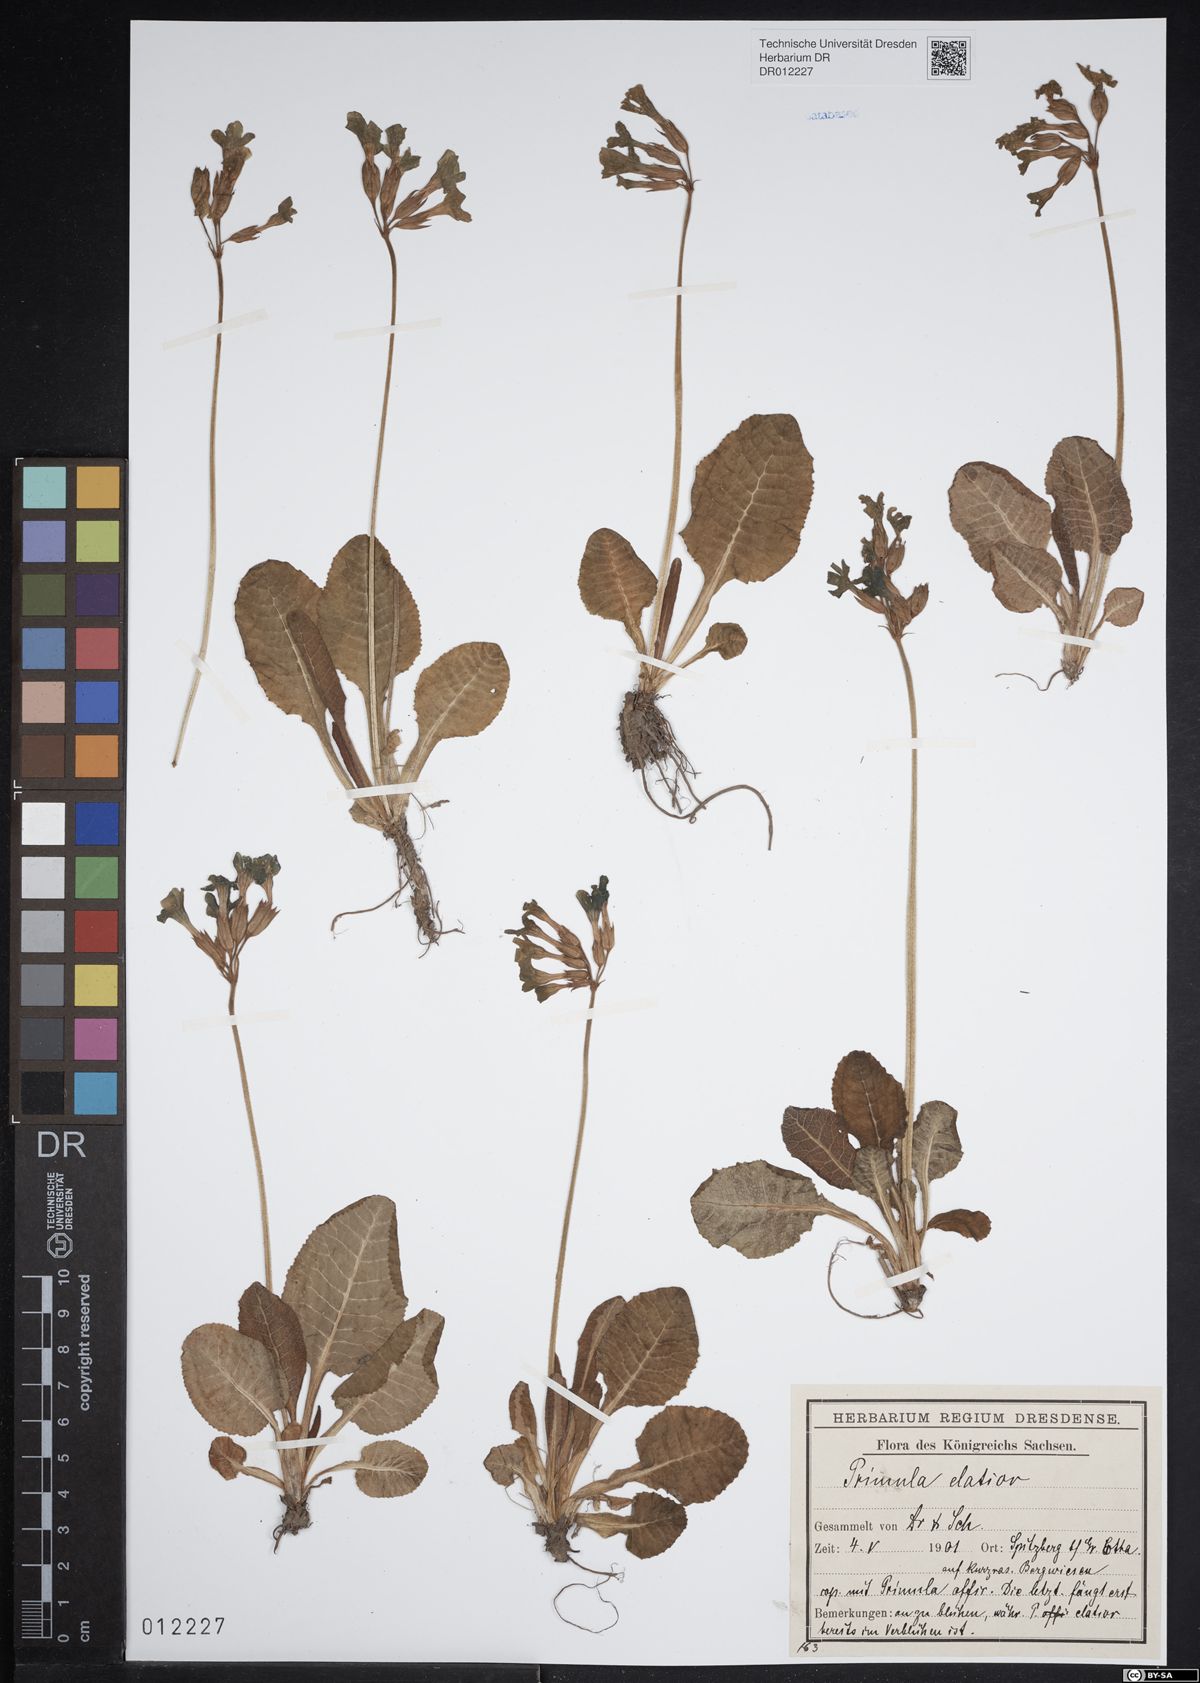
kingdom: Plantae
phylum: Tracheophyta
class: Magnoliopsida
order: Ericales
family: Primulaceae
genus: Primula
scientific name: Primula elatior
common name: Oxlip
